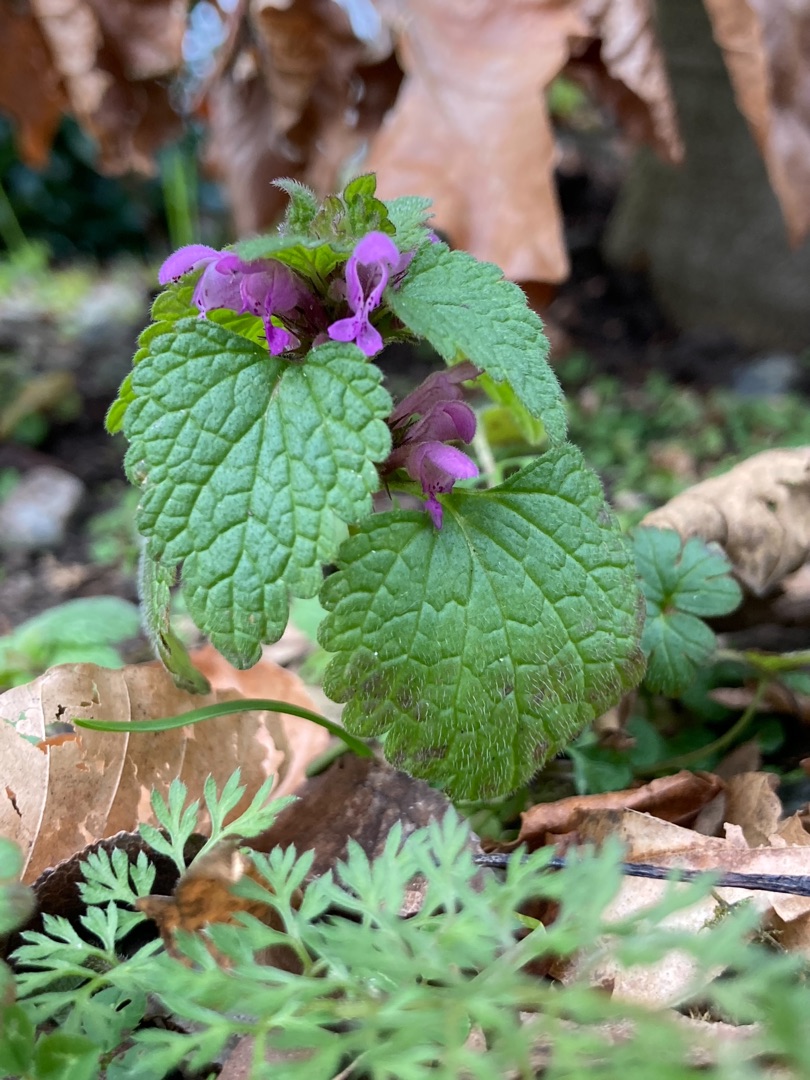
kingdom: Plantae
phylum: Tracheophyta
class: Magnoliopsida
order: Lamiales
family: Lamiaceae
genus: Lamium
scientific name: Lamium purpureum
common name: Rød tvetand
